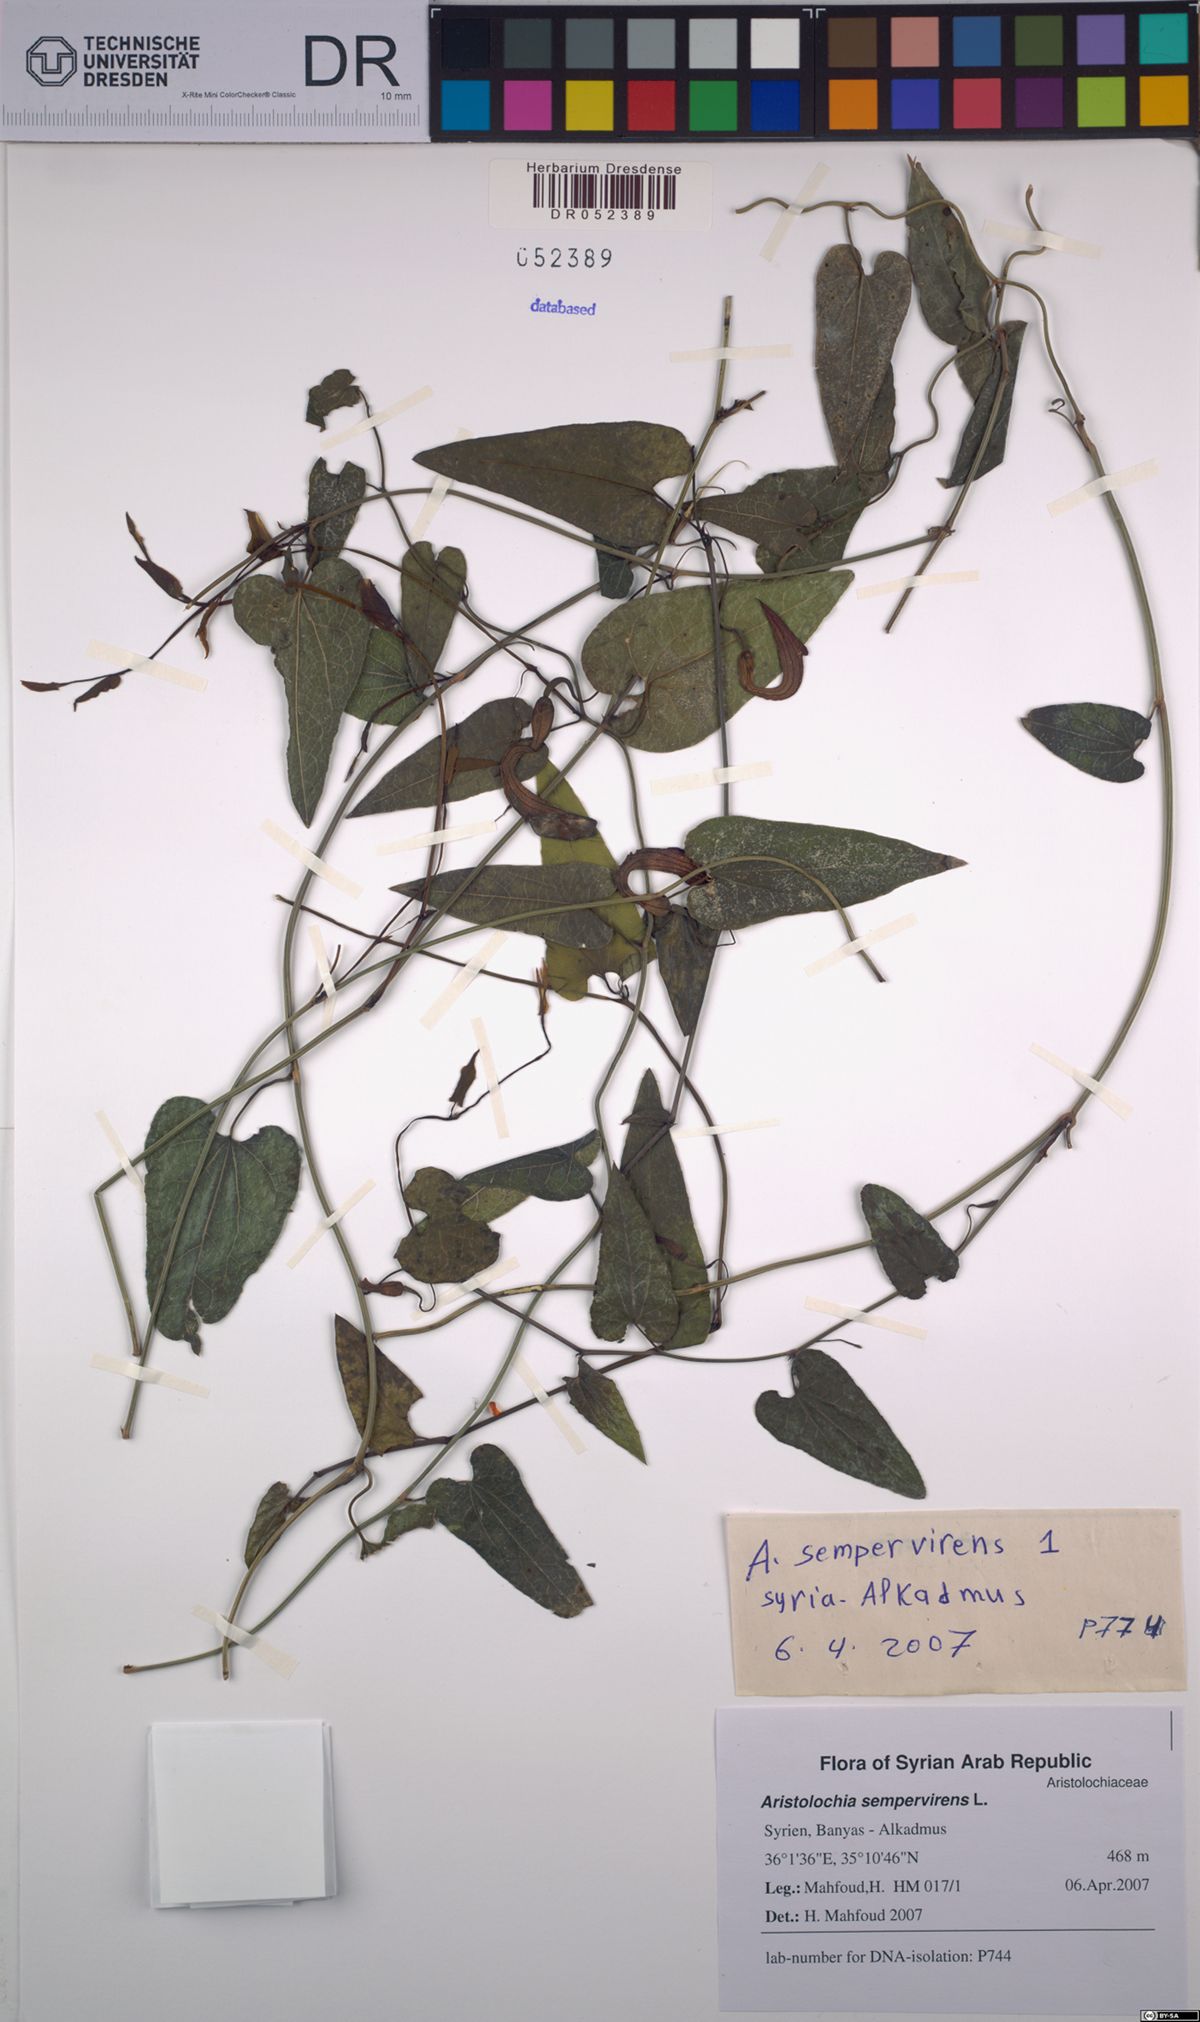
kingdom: Plantae
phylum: Tracheophyta
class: Magnoliopsida
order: Piperales
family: Aristolochiaceae
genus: Aristolochia
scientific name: Aristolochia sempervirens
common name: Long birthwort
